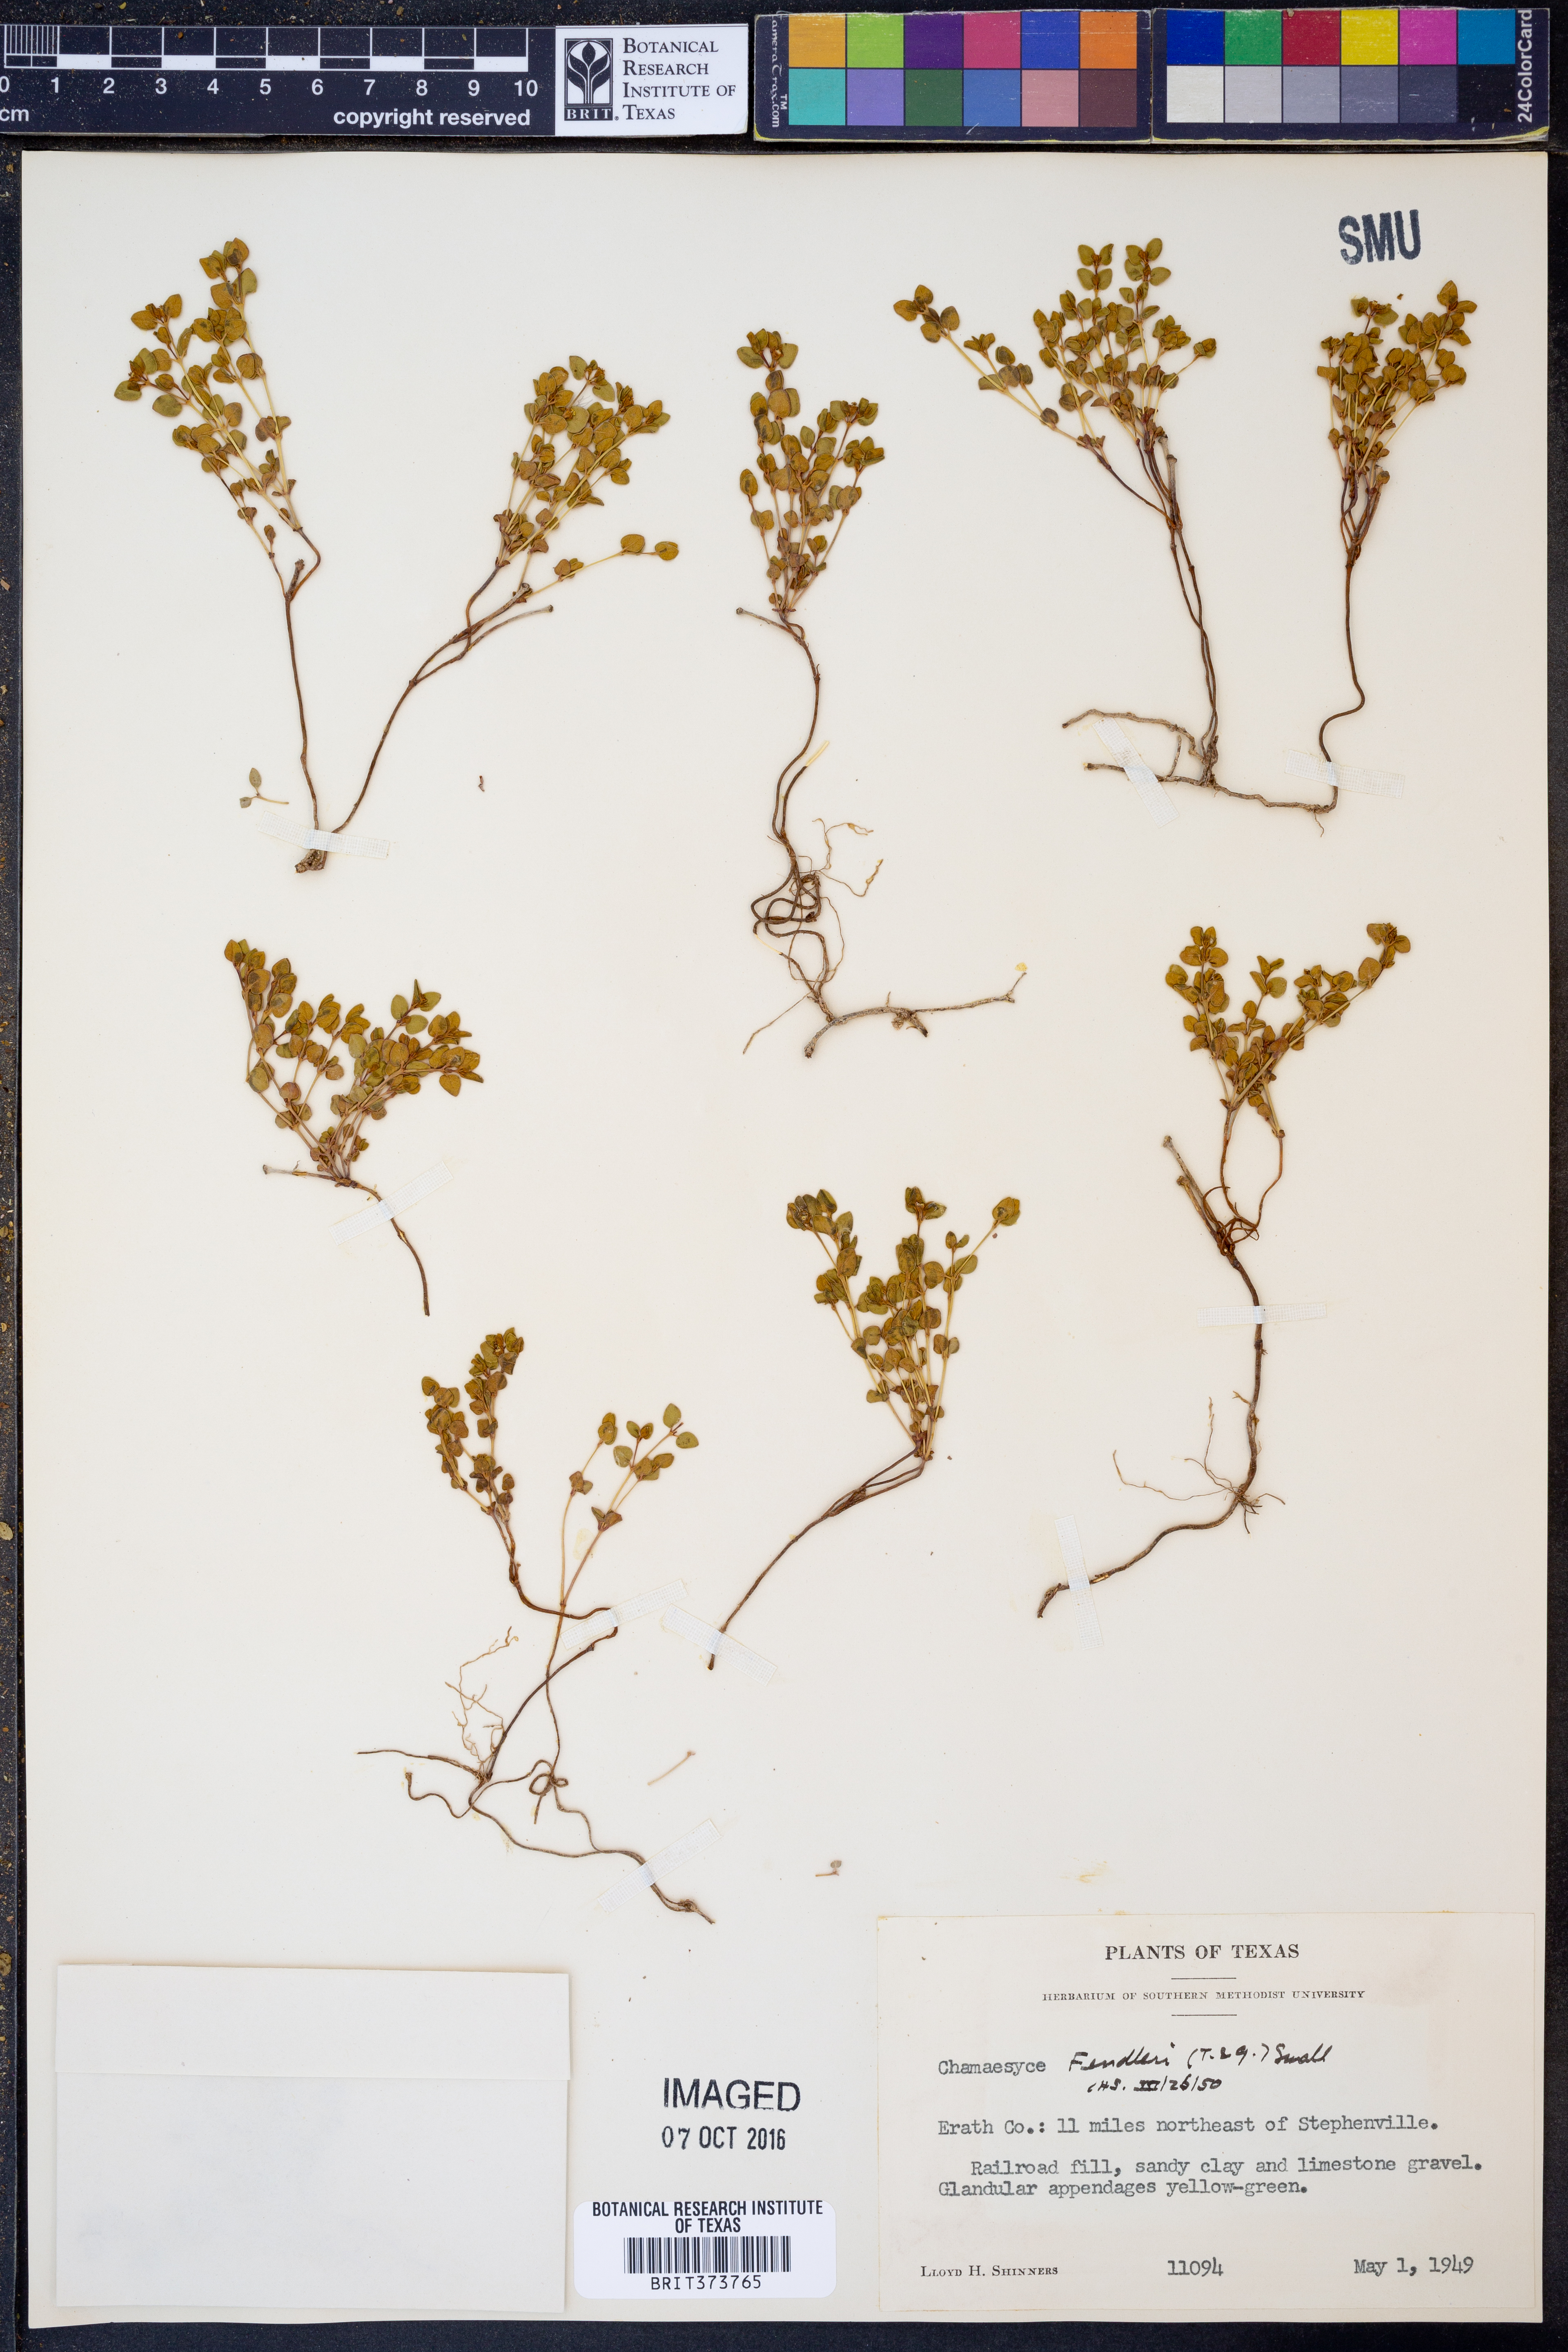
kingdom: Plantae
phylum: Tracheophyta
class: Magnoliopsida
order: Malpighiales
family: Euphorbiaceae
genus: Euphorbia
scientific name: Euphorbia fendleri
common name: Fendler's euphorbia
